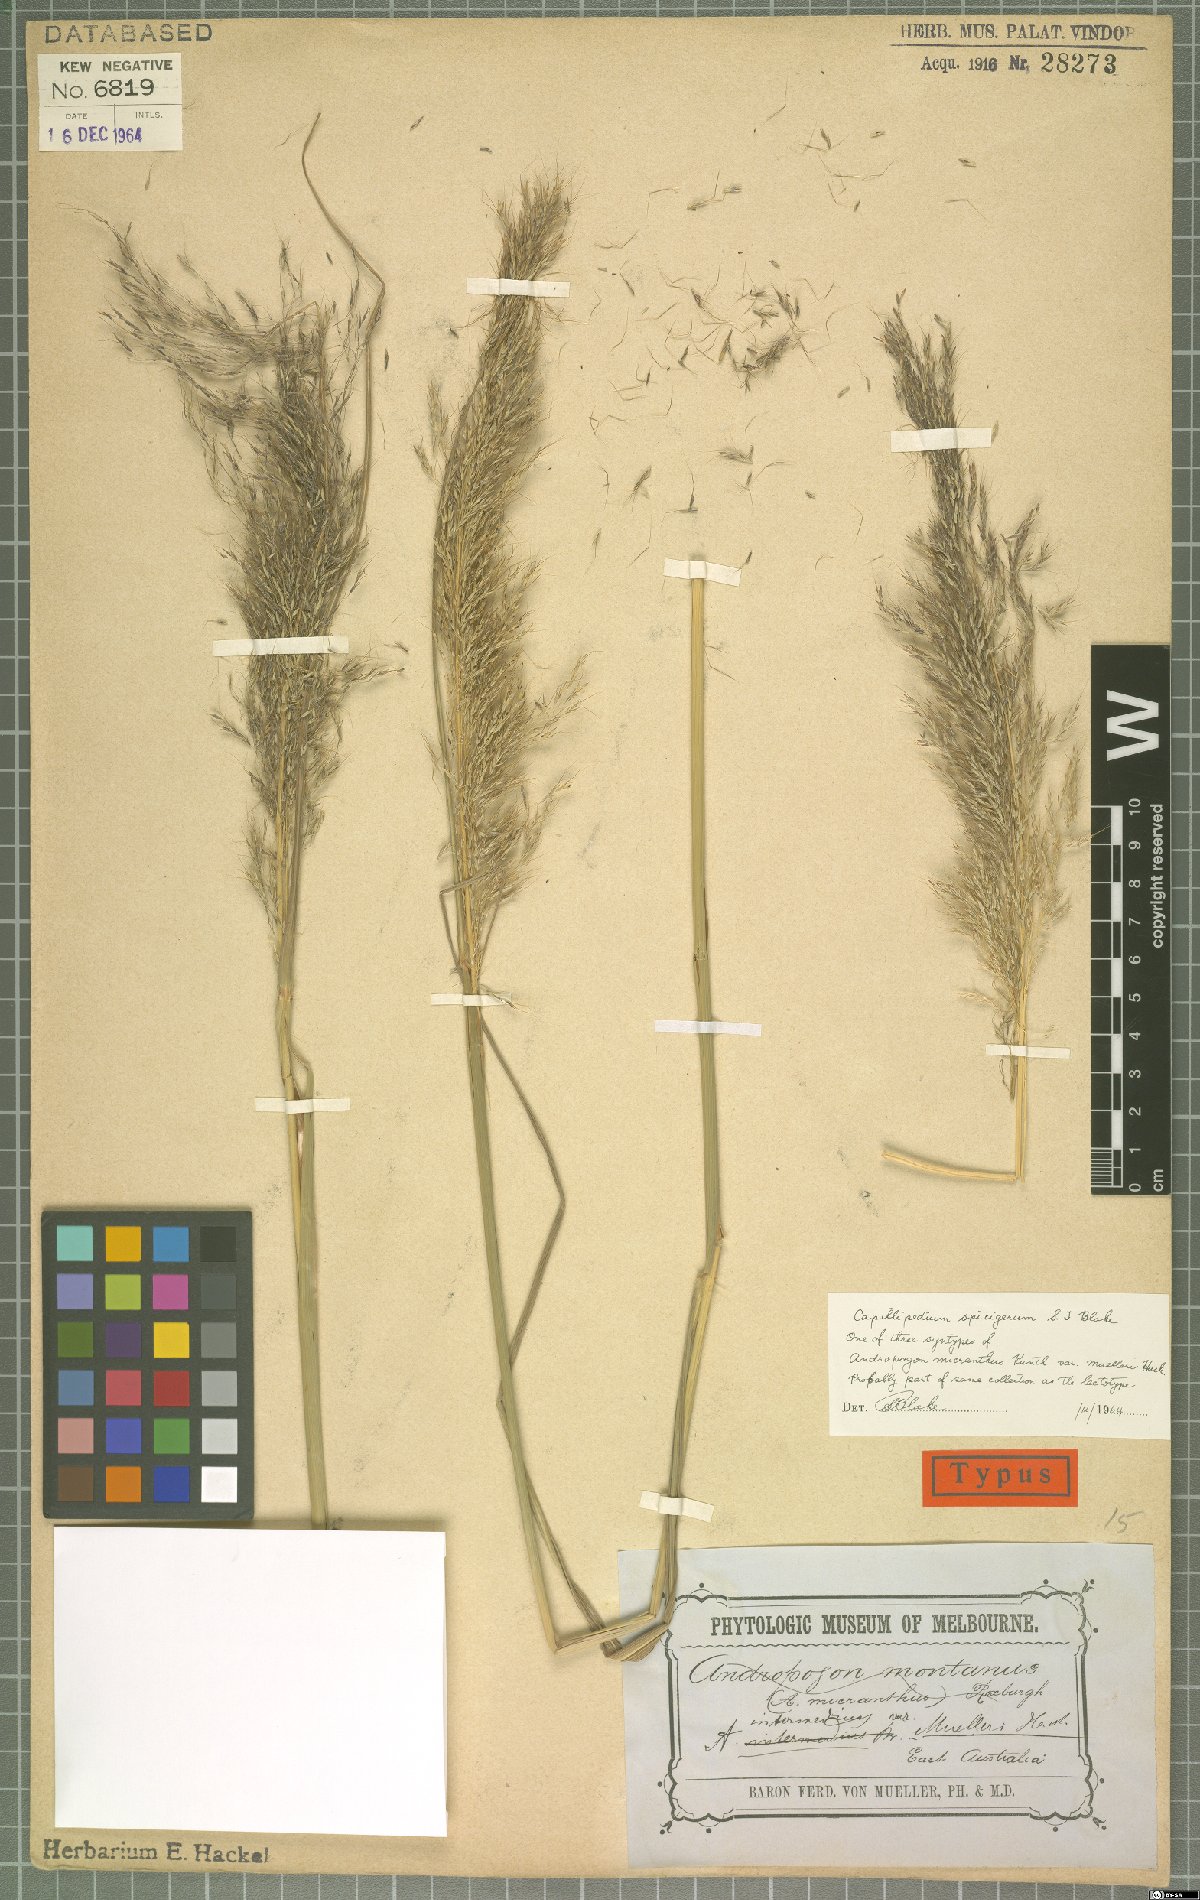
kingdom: Plantae
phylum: Tracheophyta
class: Liliopsida
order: Poales
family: Poaceae
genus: Capillipedium
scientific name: Capillipedium spicigerum
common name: Scented-top grass
